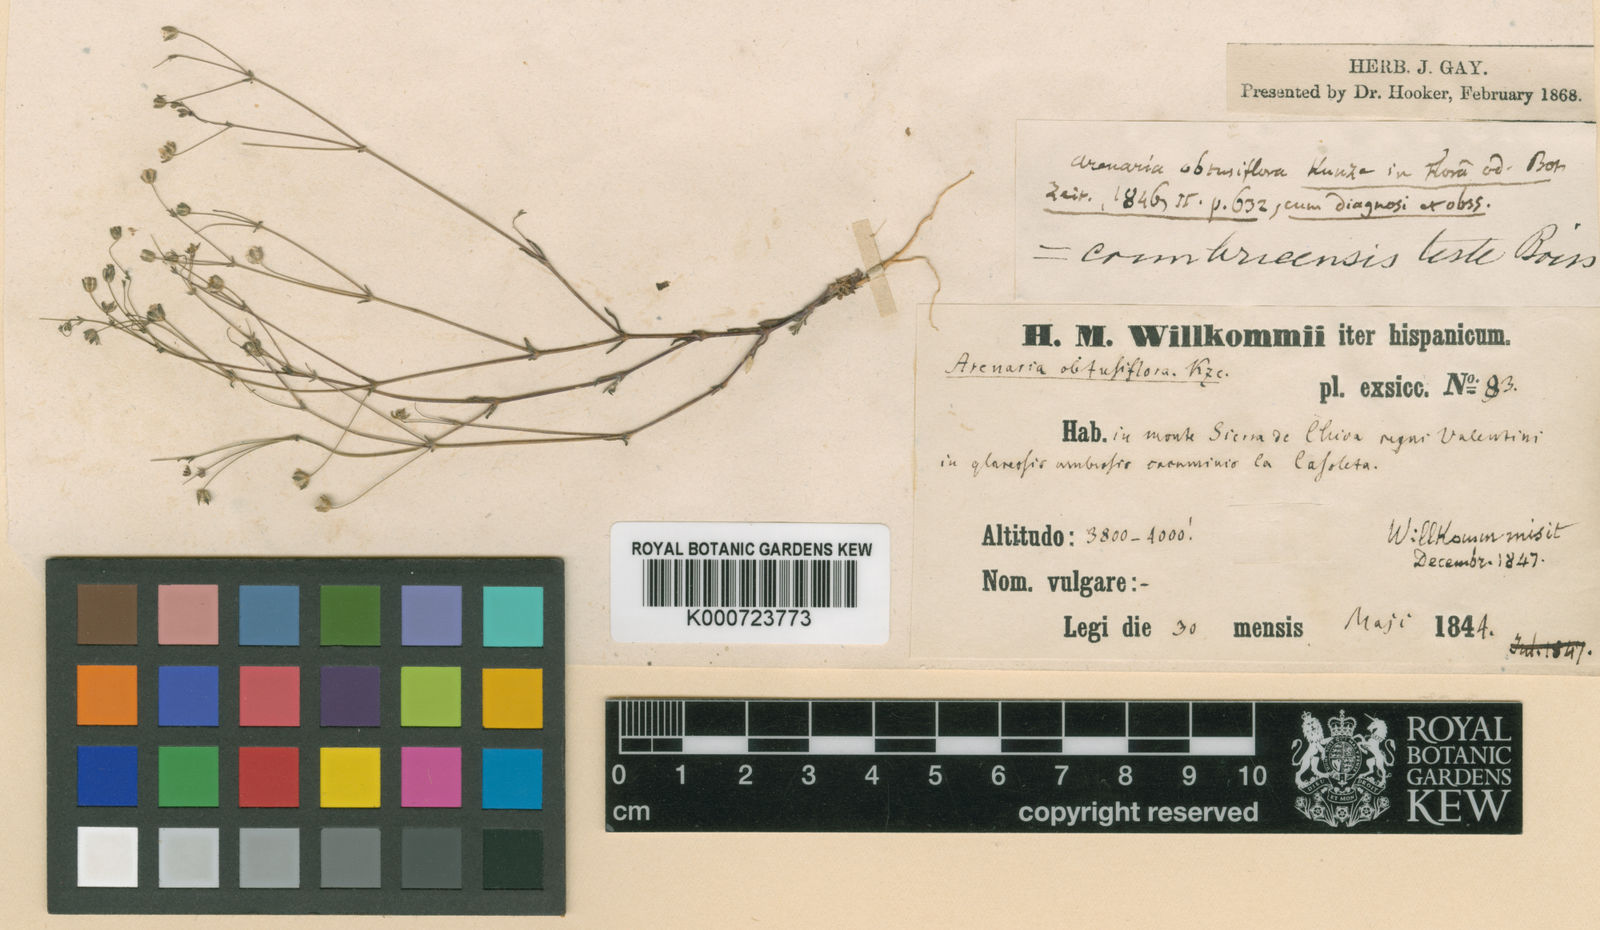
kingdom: Plantae
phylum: Tracheophyta
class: Magnoliopsida
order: Caryophyllales
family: Caryophyllaceae
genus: Arenaria
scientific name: Arenaria obtusiflora
